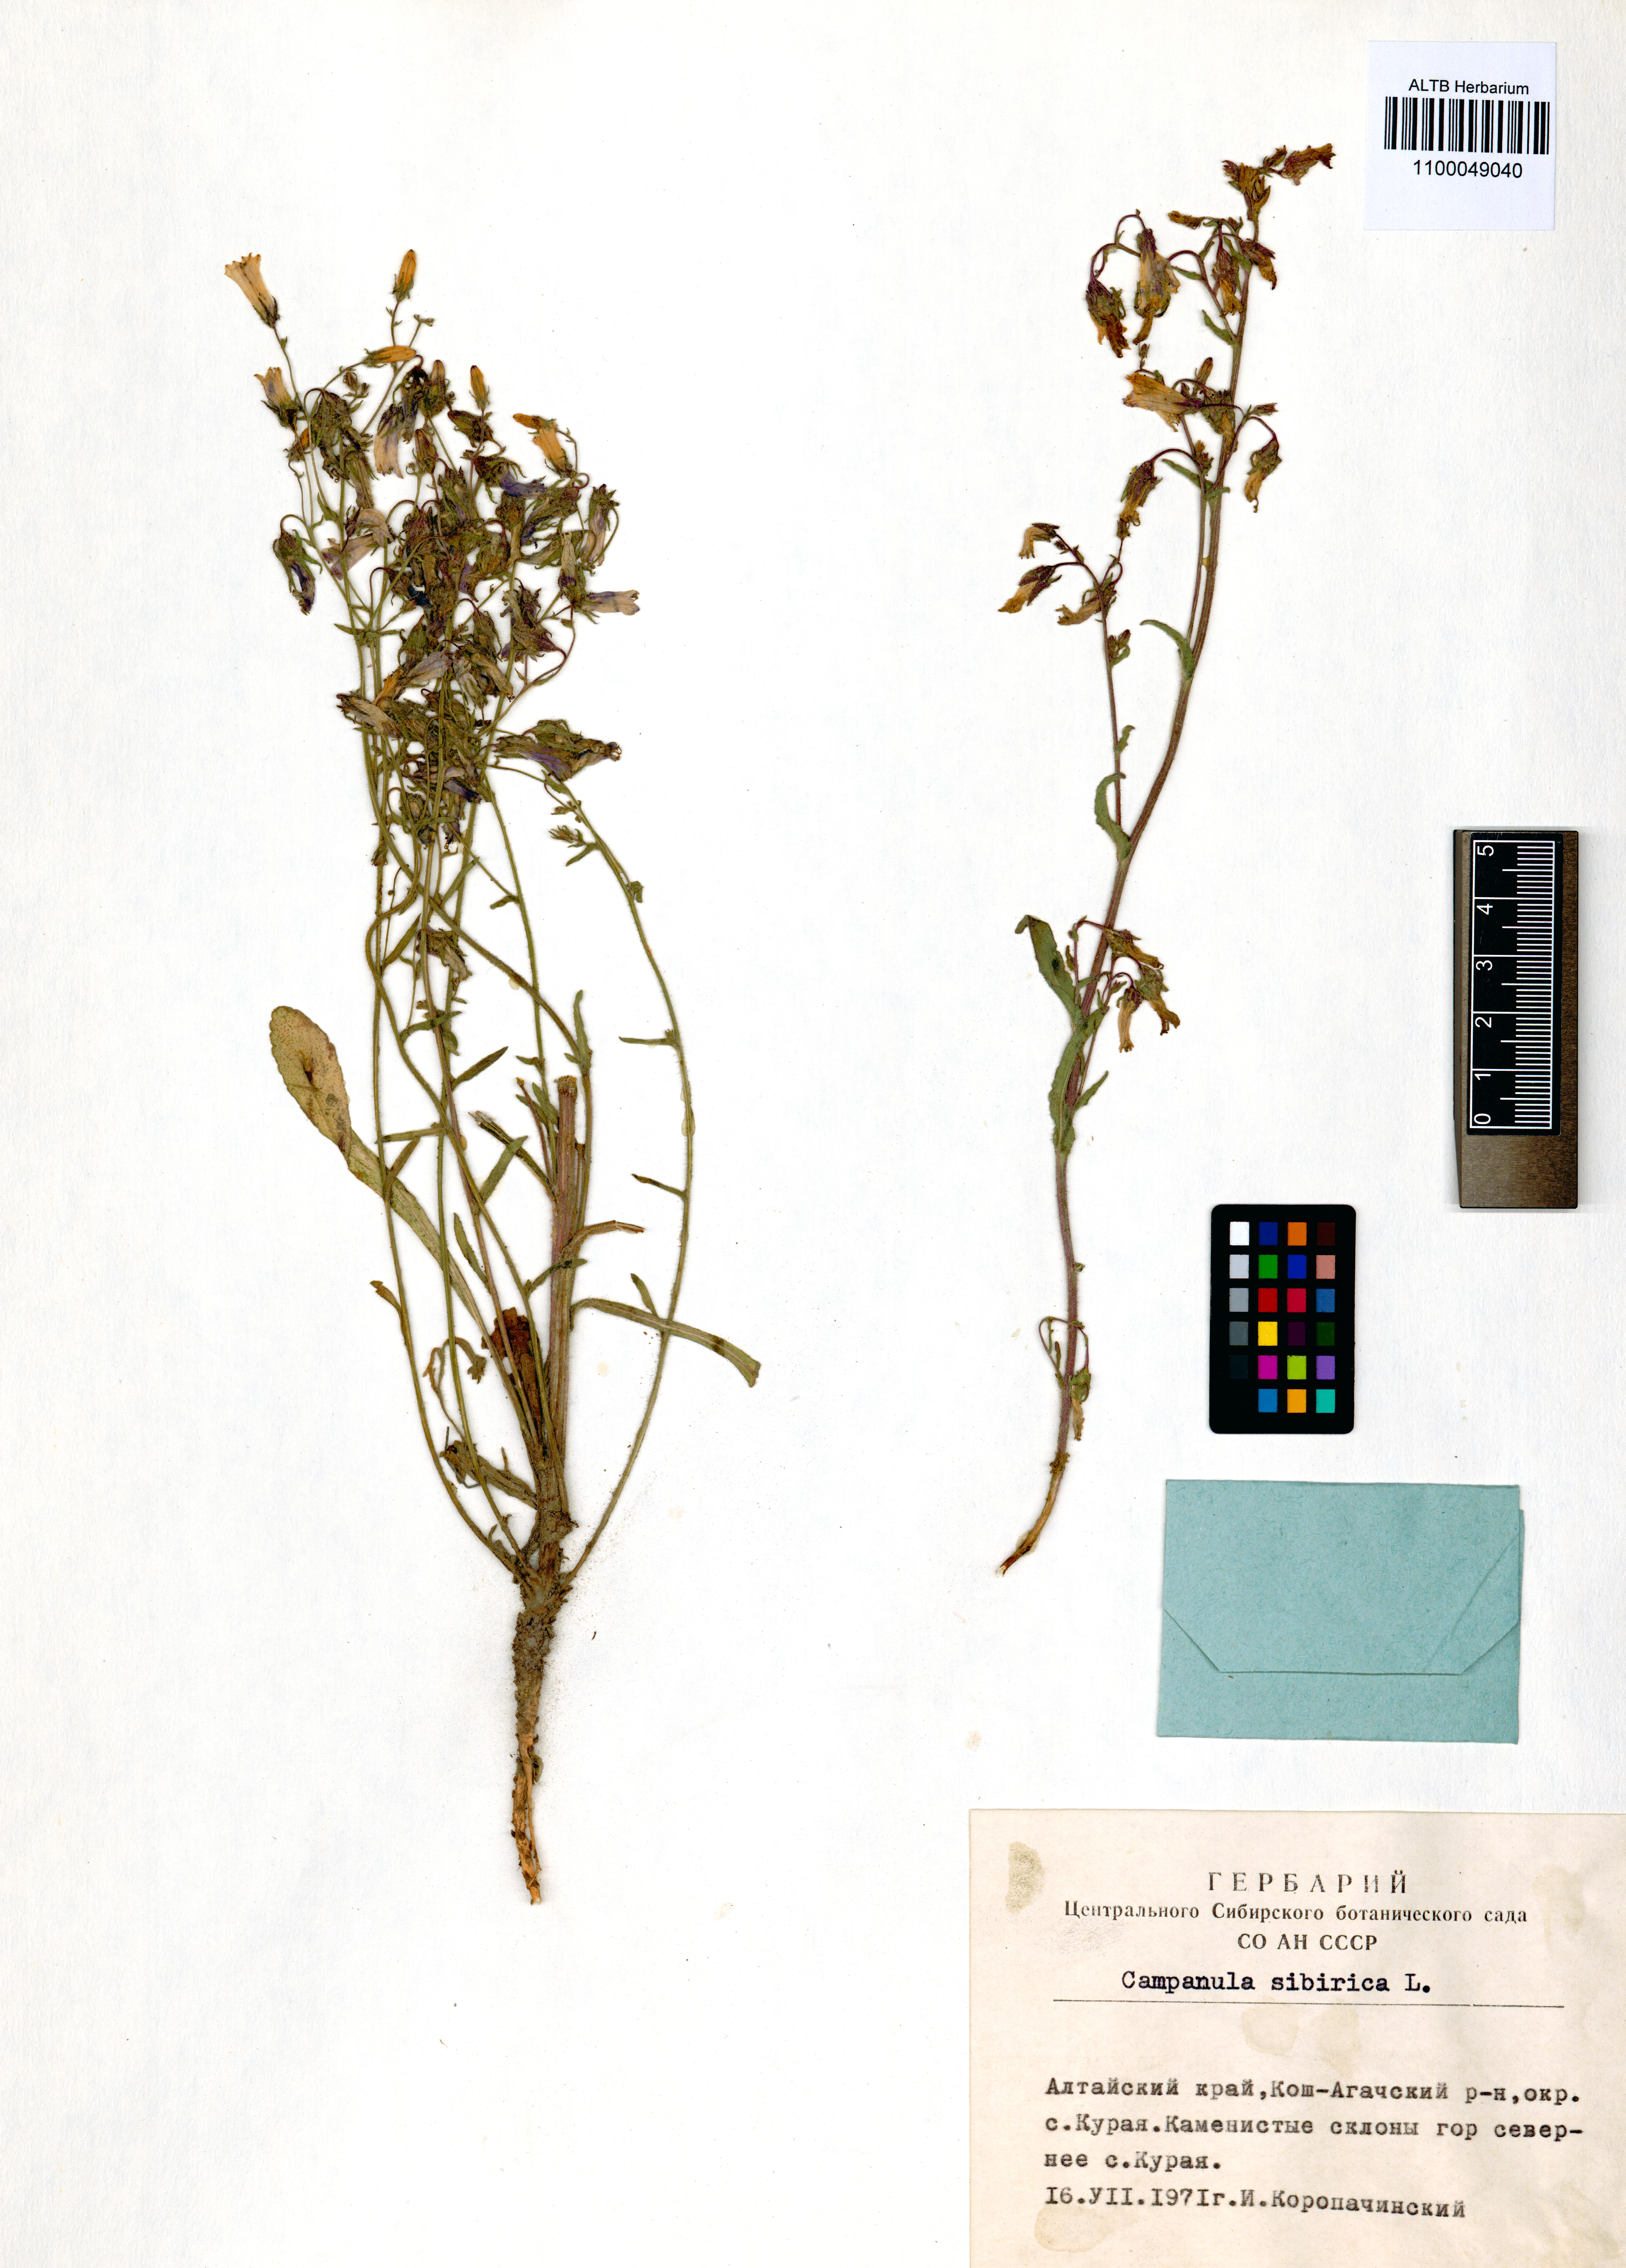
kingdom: Plantae
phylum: Tracheophyta
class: Magnoliopsida
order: Asterales
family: Campanulaceae
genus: Campanula
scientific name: Campanula sibirica
